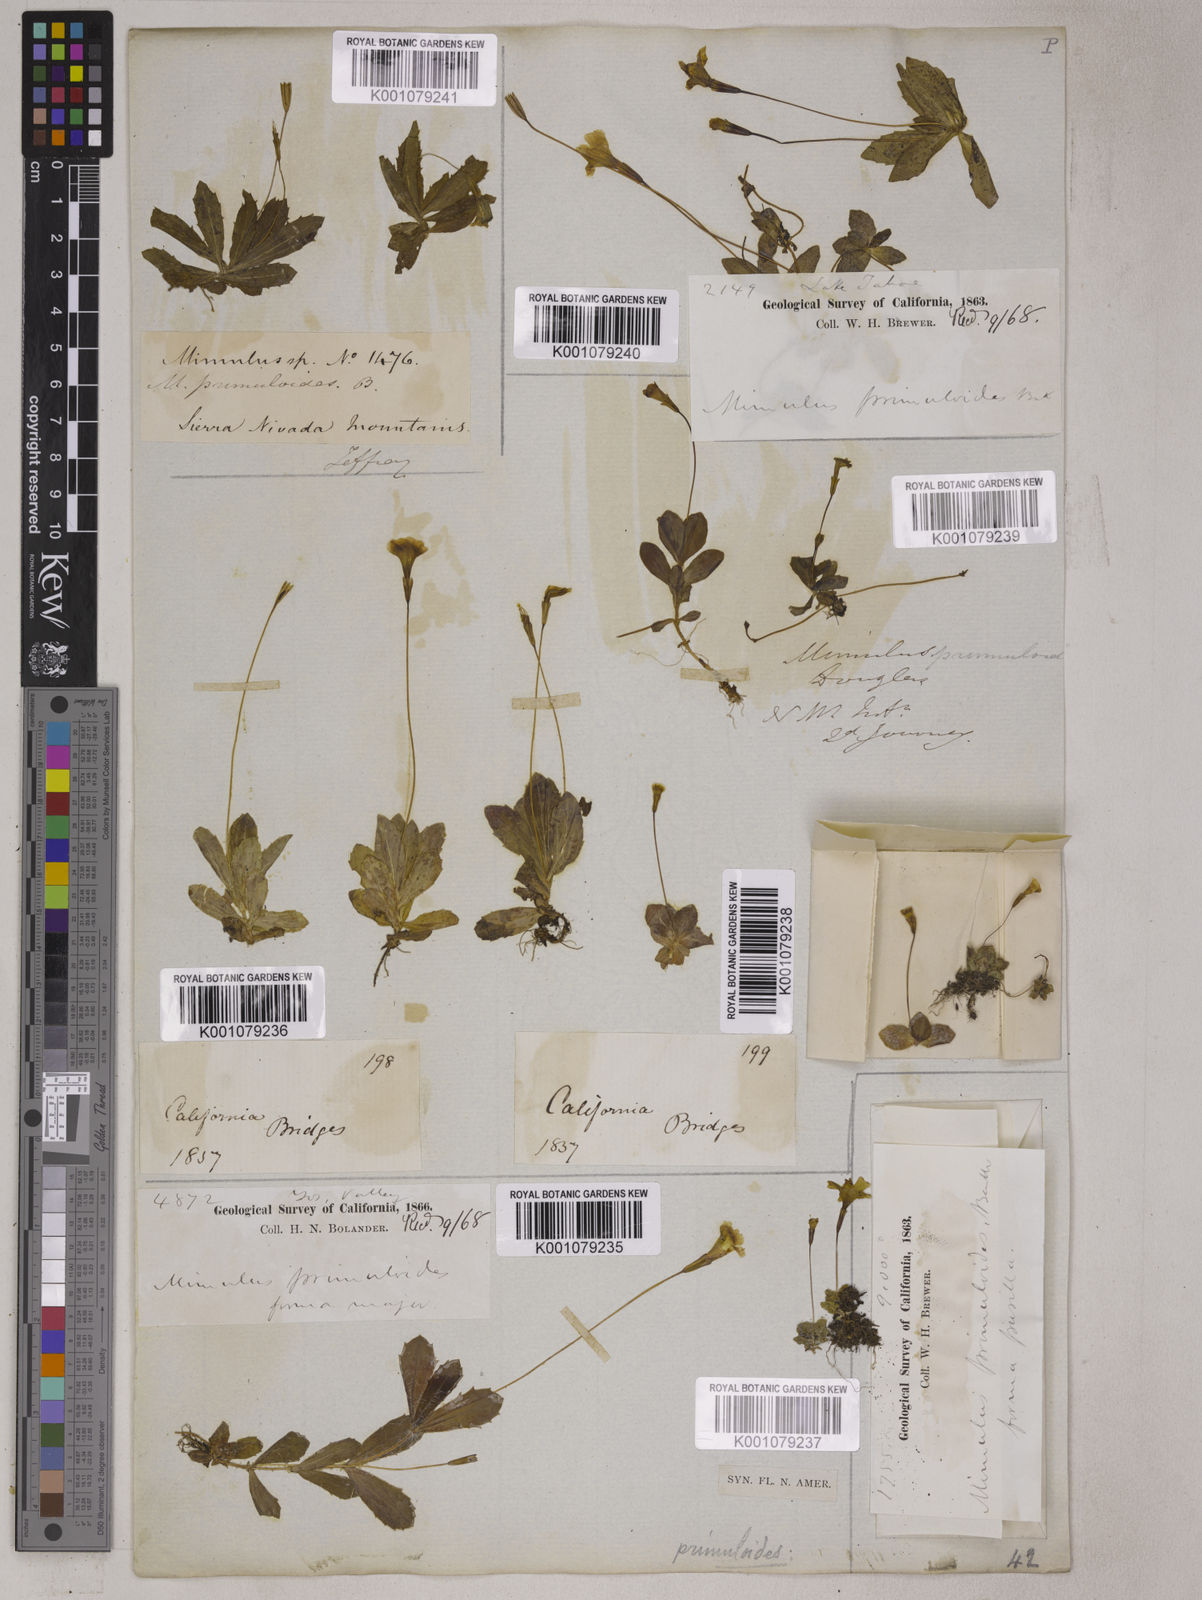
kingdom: Plantae
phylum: Tracheophyta
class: Magnoliopsida
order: Lamiales
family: Phrymaceae
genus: Erythranthe
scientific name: Erythranthe primuloides
